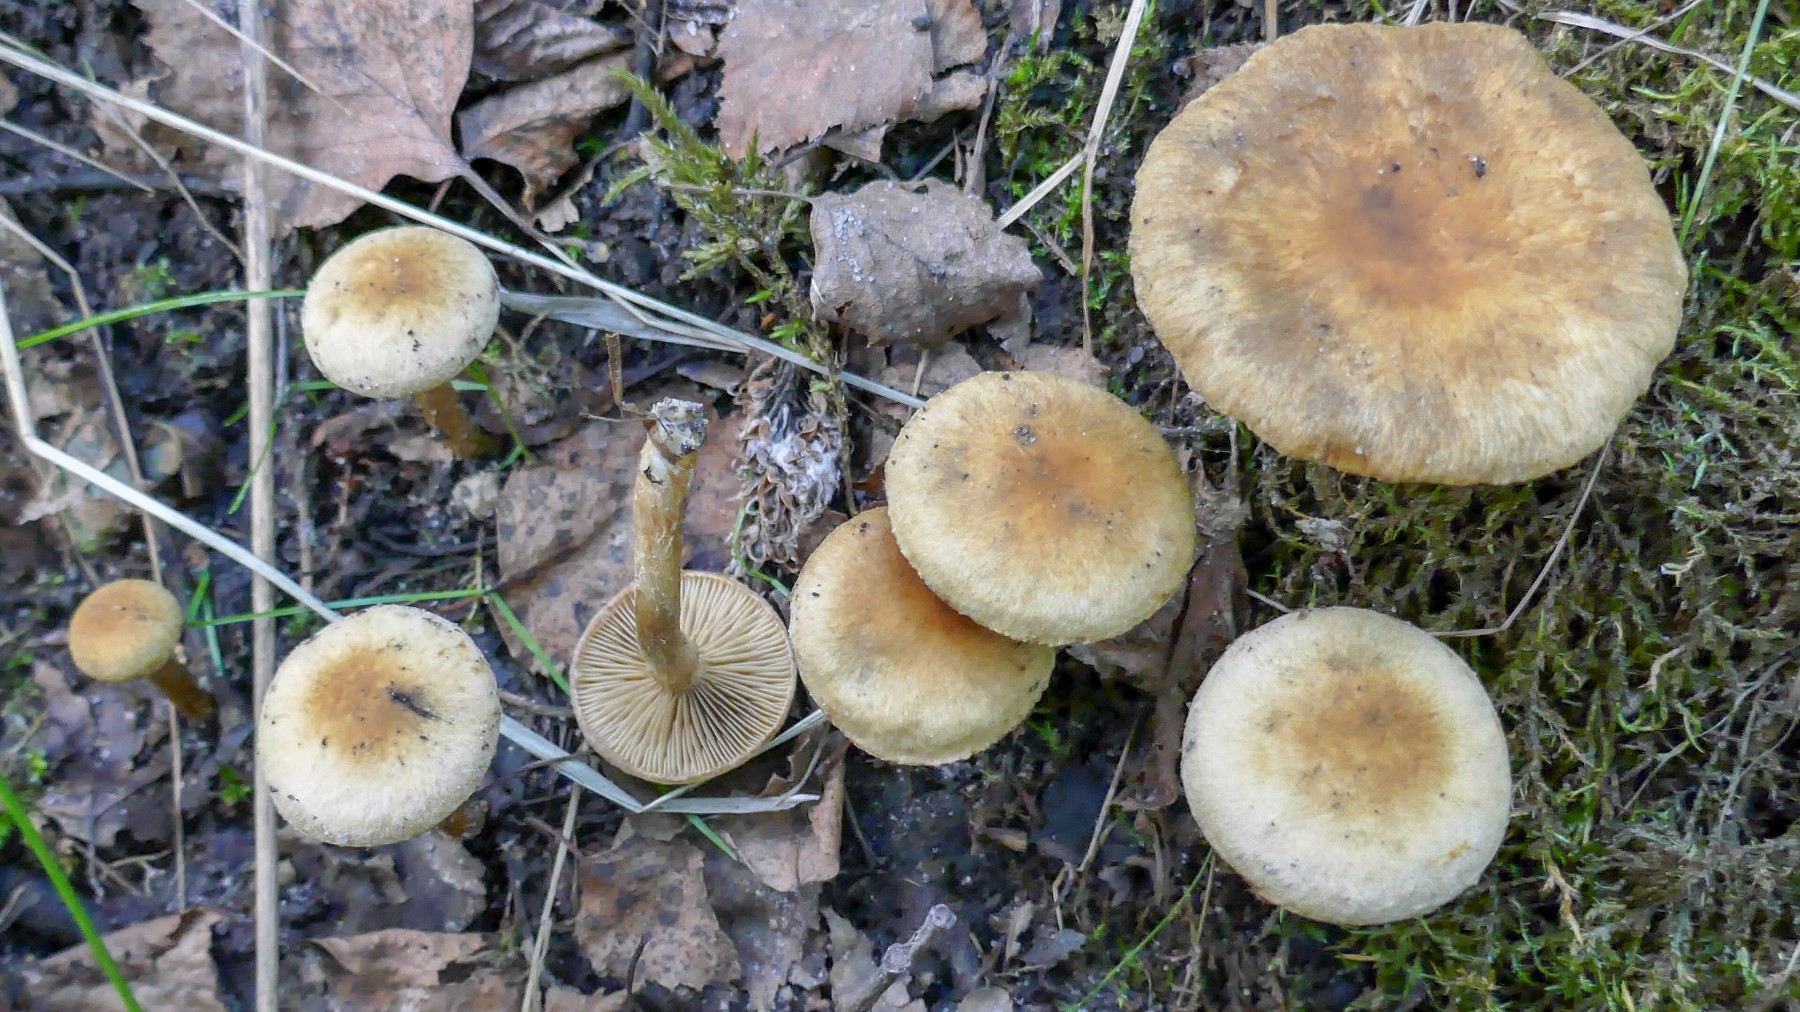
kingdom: Fungi
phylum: Basidiomycota
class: Agaricomycetes
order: Agaricales
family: Strophariaceae
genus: Pholiota
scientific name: Pholiota conissans
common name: pile-skælhat
